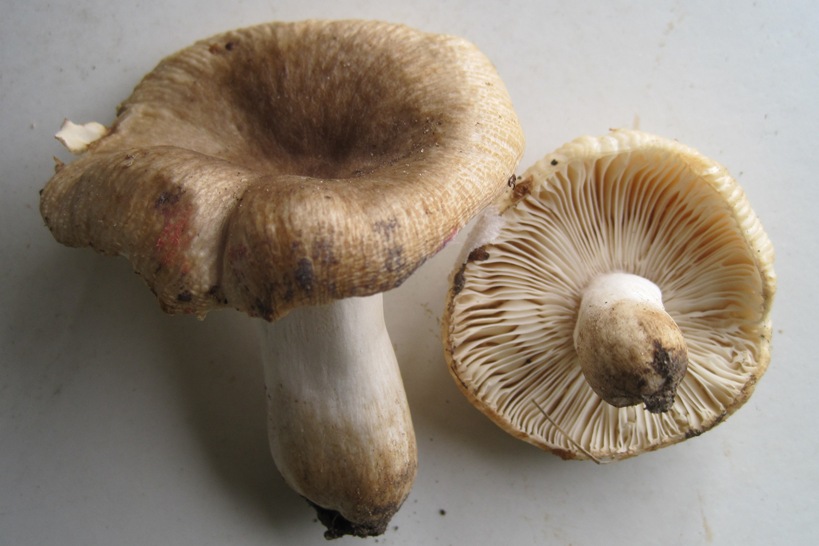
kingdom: Fungi
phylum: Basidiomycota
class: Agaricomycetes
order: Russulales
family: Russulaceae
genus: Russula
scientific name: Russula recondita
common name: mild kam-skørhat
